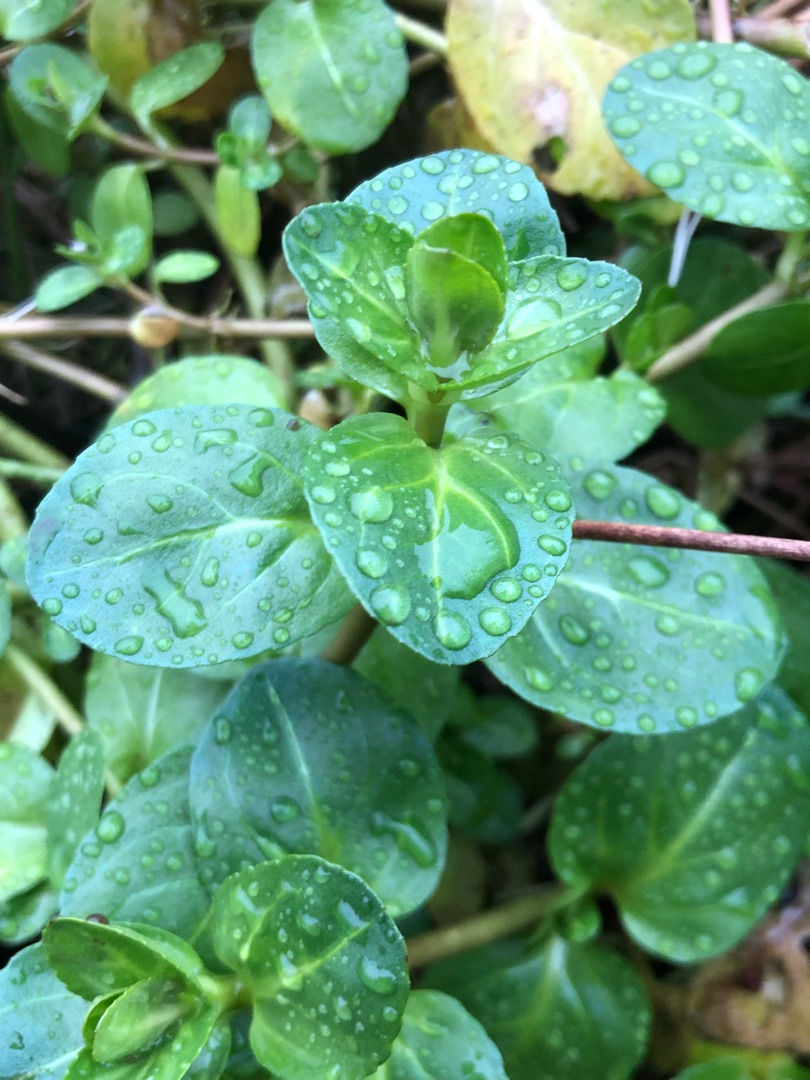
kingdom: Plantae
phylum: Tracheophyta
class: Magnoliopsida
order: Lamiales
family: Plantaginaceae
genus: Veronica
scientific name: Veronica beccabunga
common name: Tykbladet ærenpris
